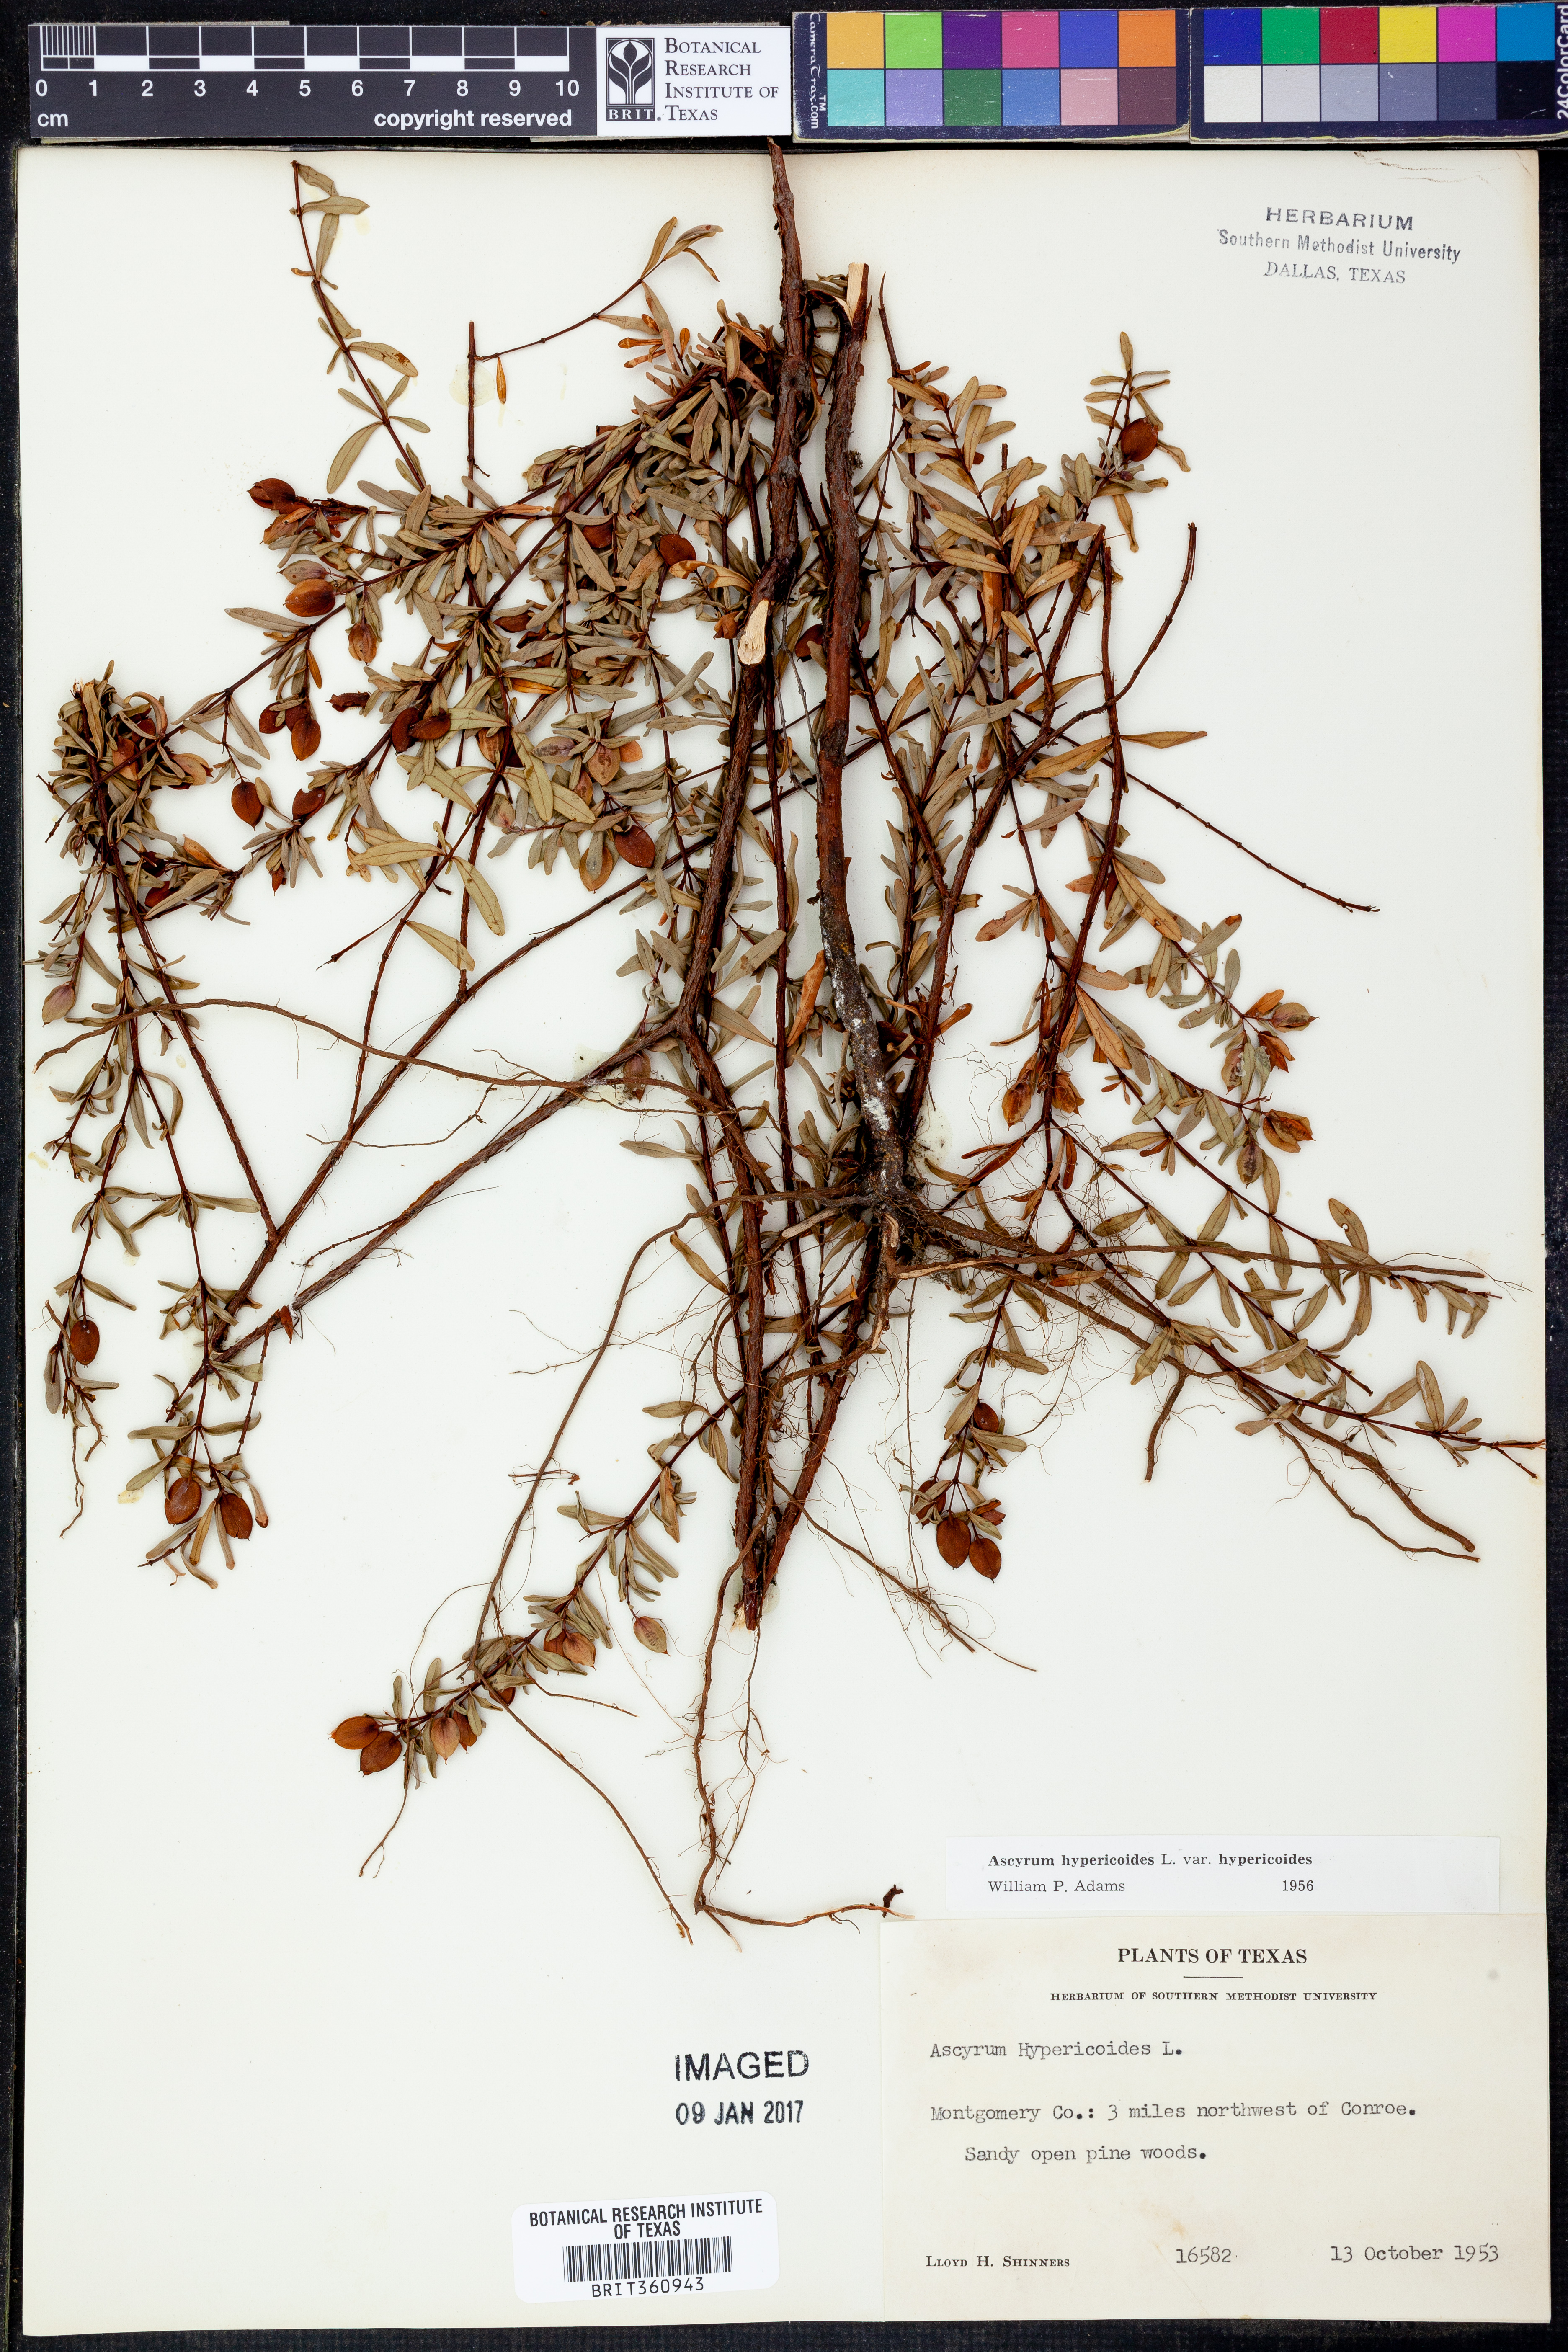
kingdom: Plantae
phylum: Tracheophyta
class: Magnoliopsida
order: Malpighiales
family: Hypericaceae
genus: Hypericum
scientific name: Hypericum hypericoides
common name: St. andrew's cross
